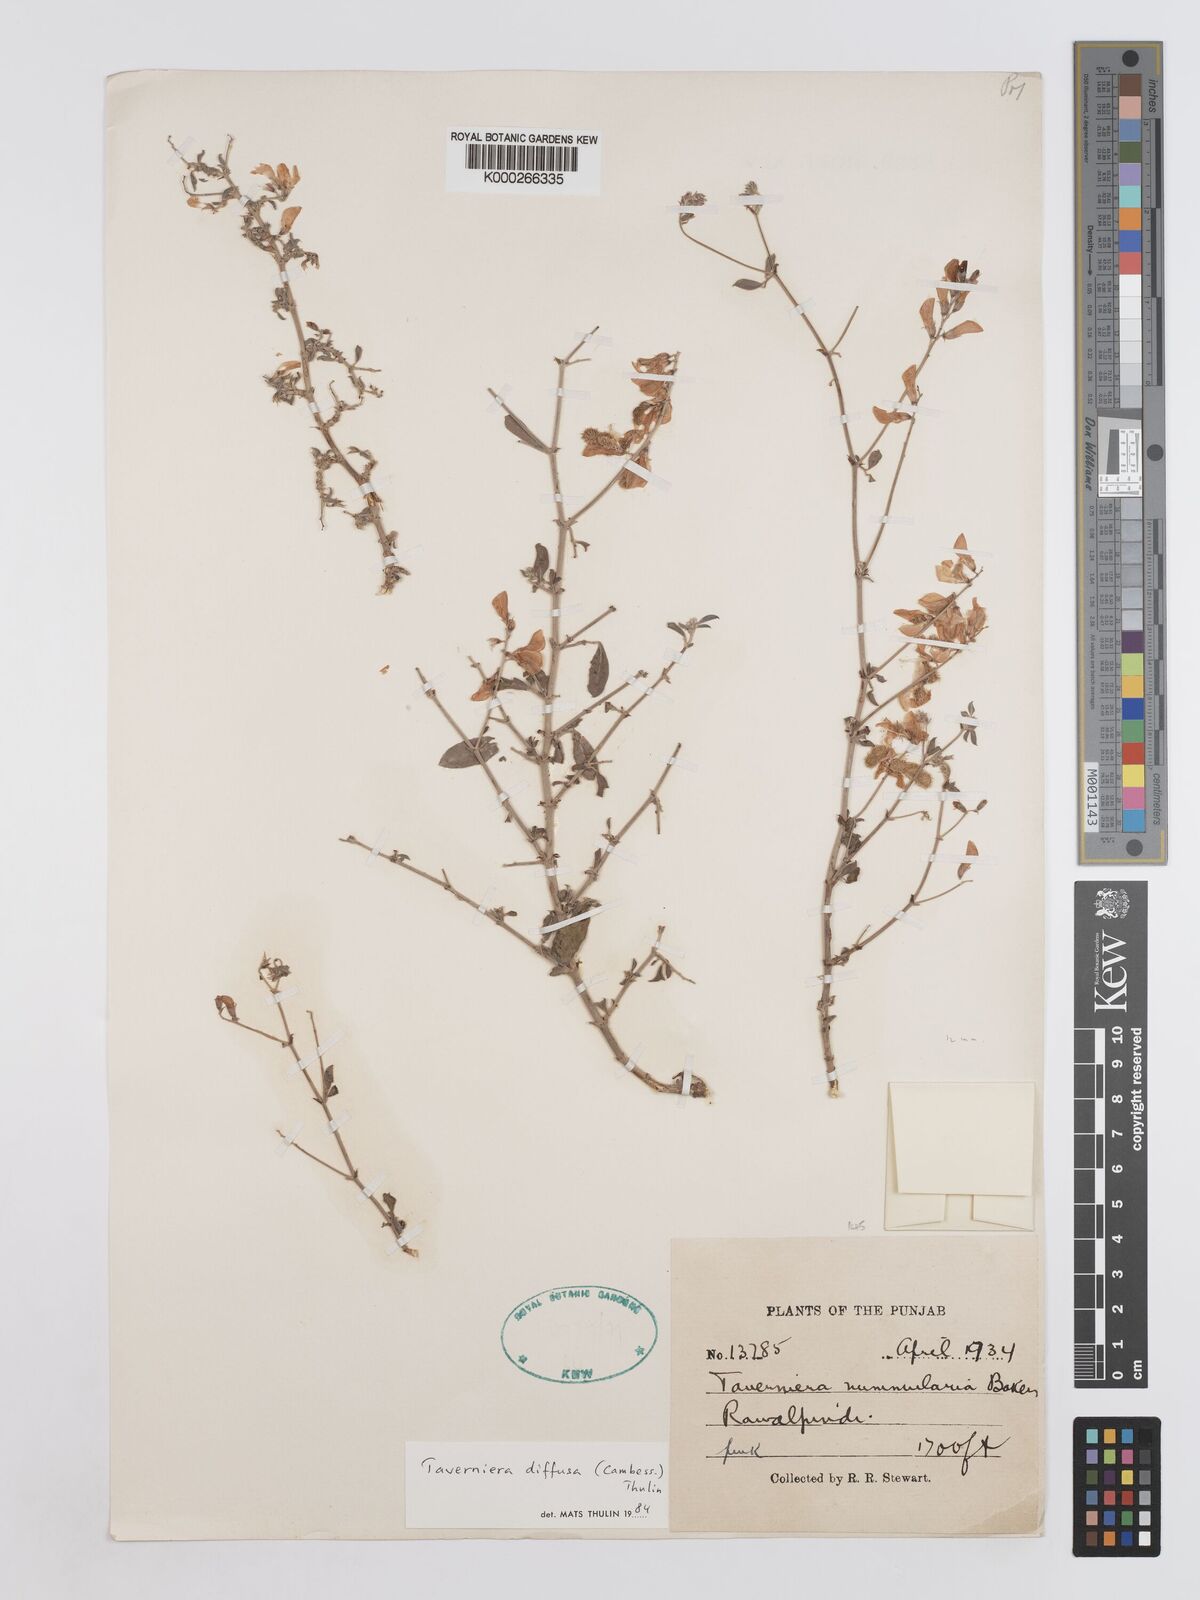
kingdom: Plantae
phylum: Tracheophyta
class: Magnoliopsida
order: Fabales
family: Fabaceae
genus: Taverniera
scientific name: Taverniera diffusa
